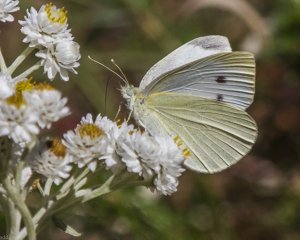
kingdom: Animalia
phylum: Arthropoda
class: Insecta
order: Lepidoptera
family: Pieridae
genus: Pieris
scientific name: Pieris rapae
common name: Cabbage White
